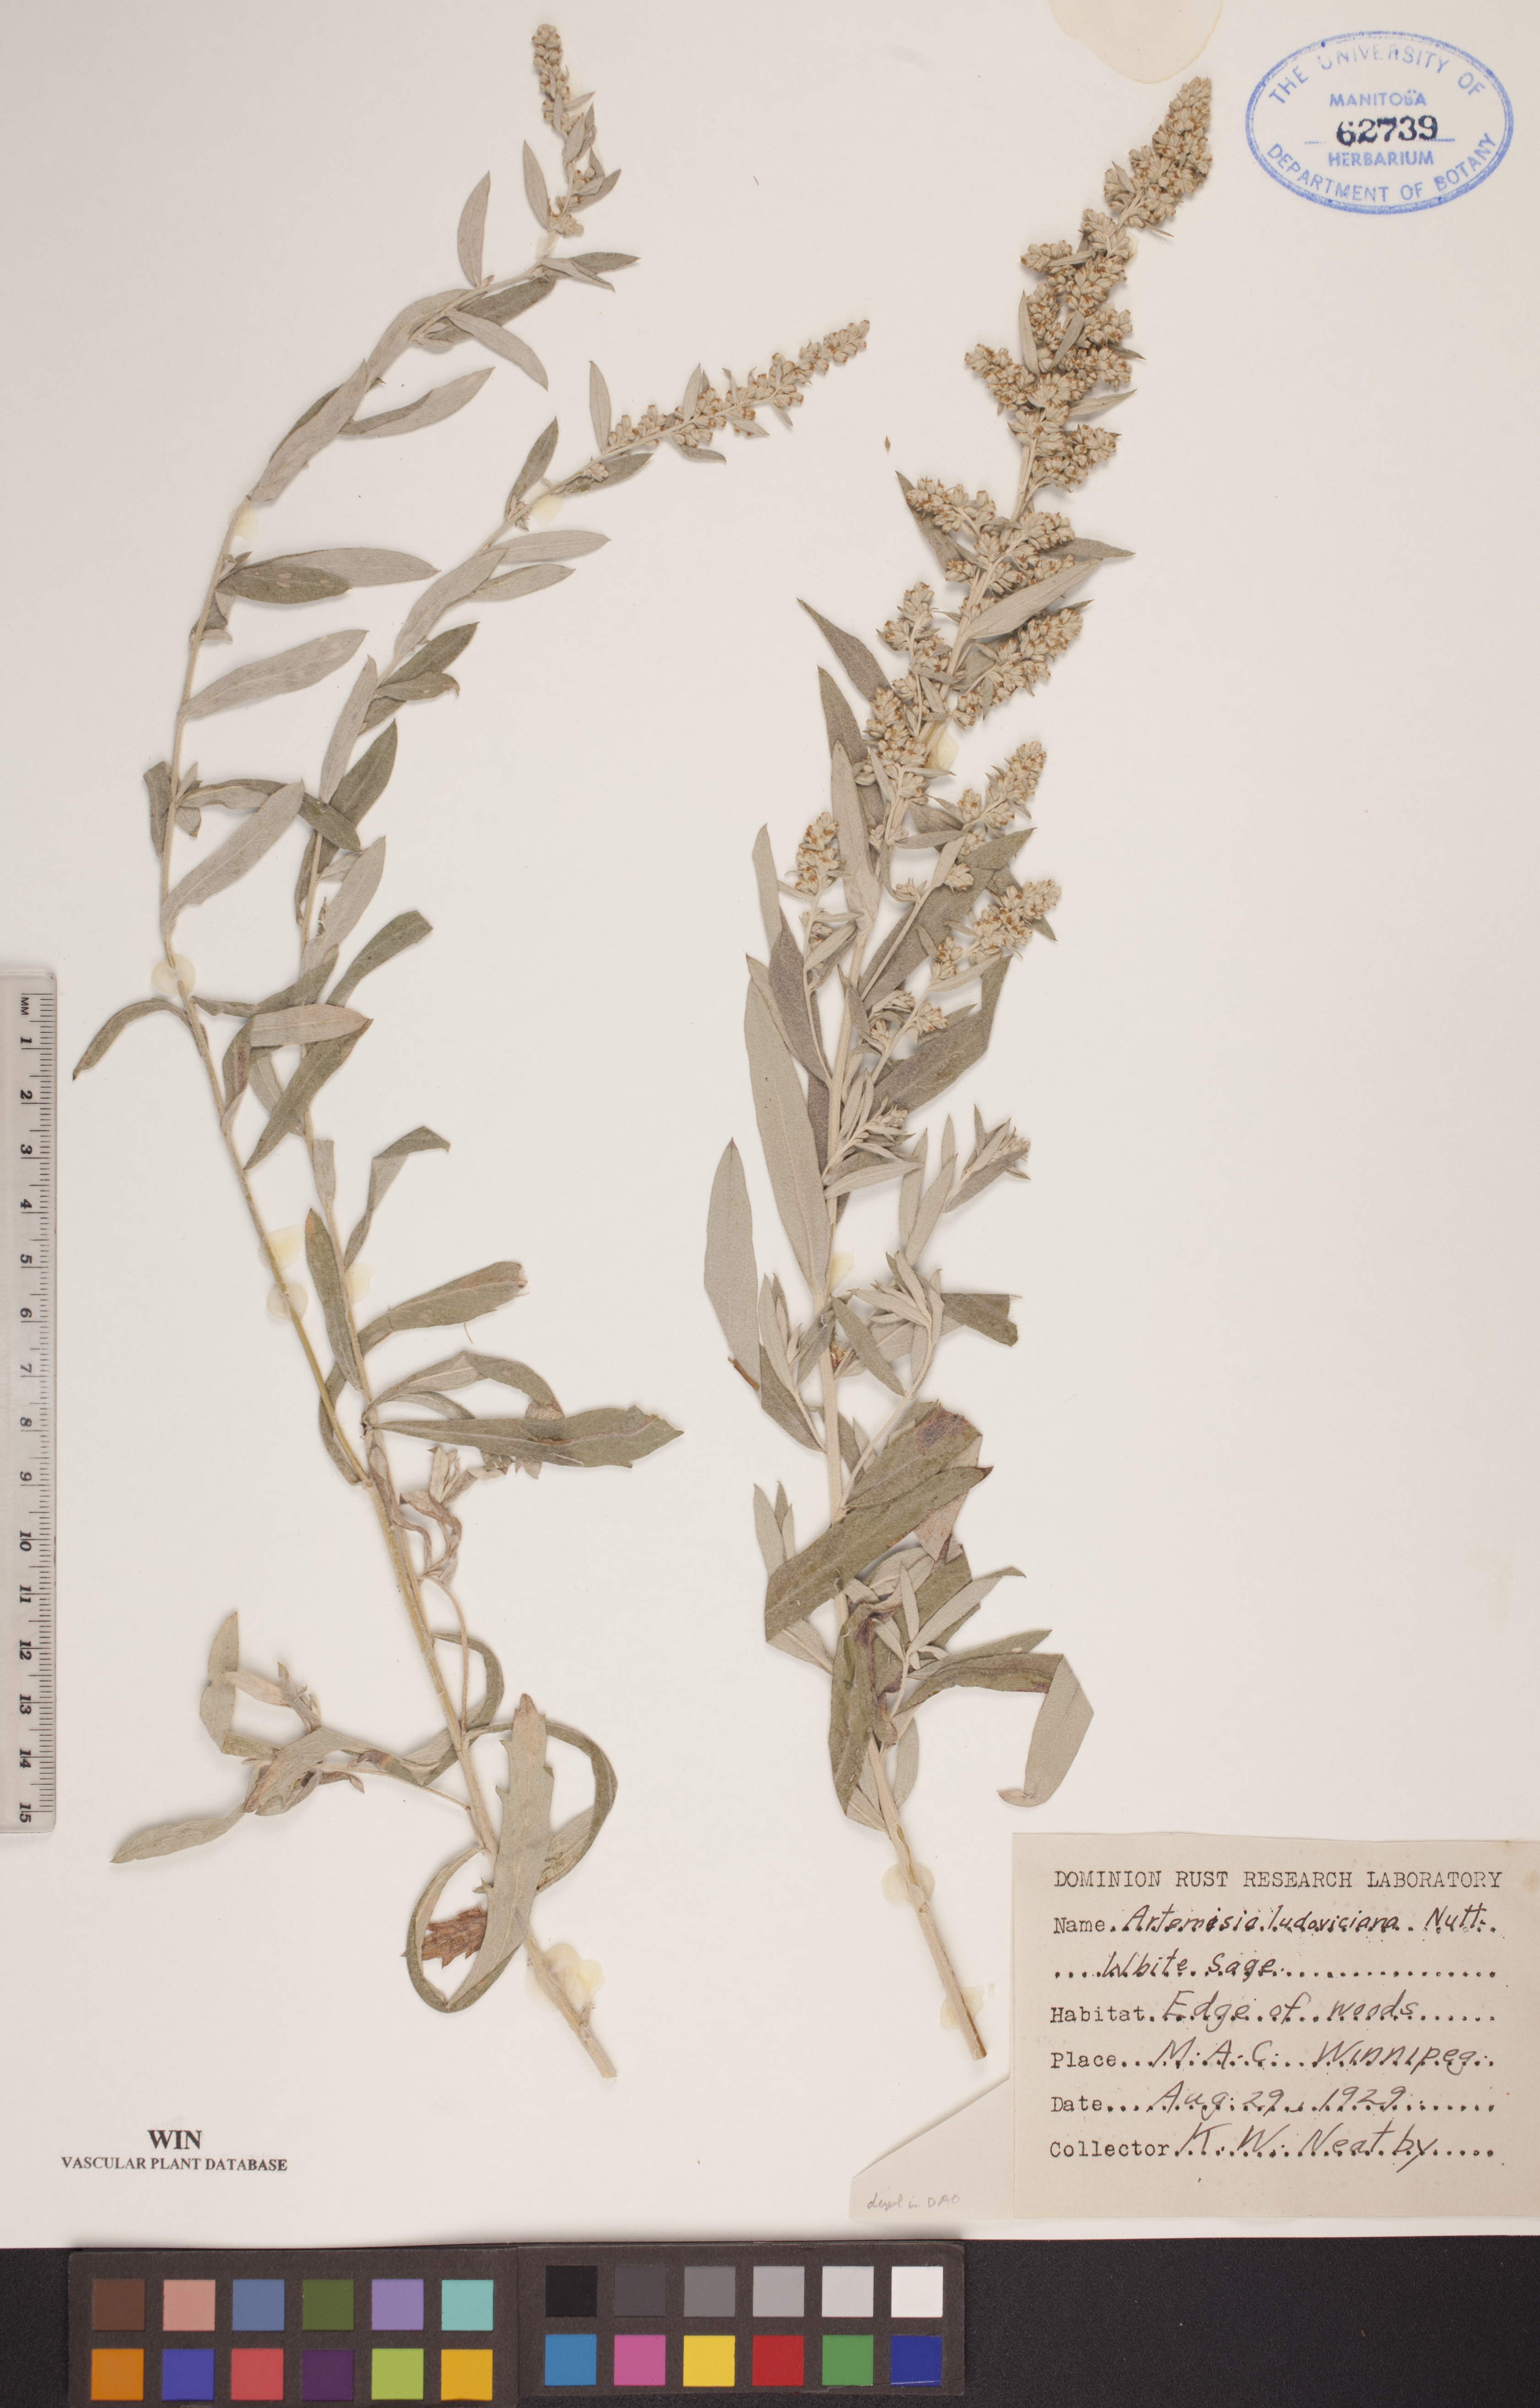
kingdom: Plantae
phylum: Tracheophyta
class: Magnoliopsida
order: Asterales
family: Asteraceae
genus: Artemisia
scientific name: Artemisia ludoviciana
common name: Western mugwort
